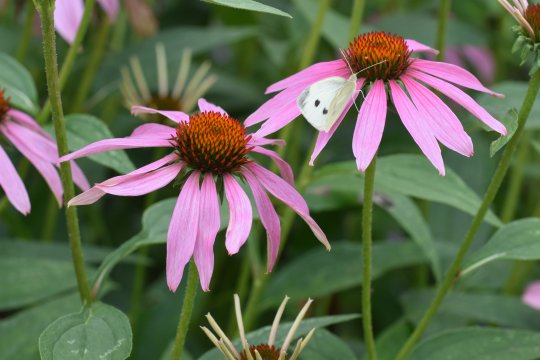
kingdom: Animalia
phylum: Arthropoda
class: Insecta
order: Lepidoptera
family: Pieridae
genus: Pieris
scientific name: Pieris rapae
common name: Cabbage White
